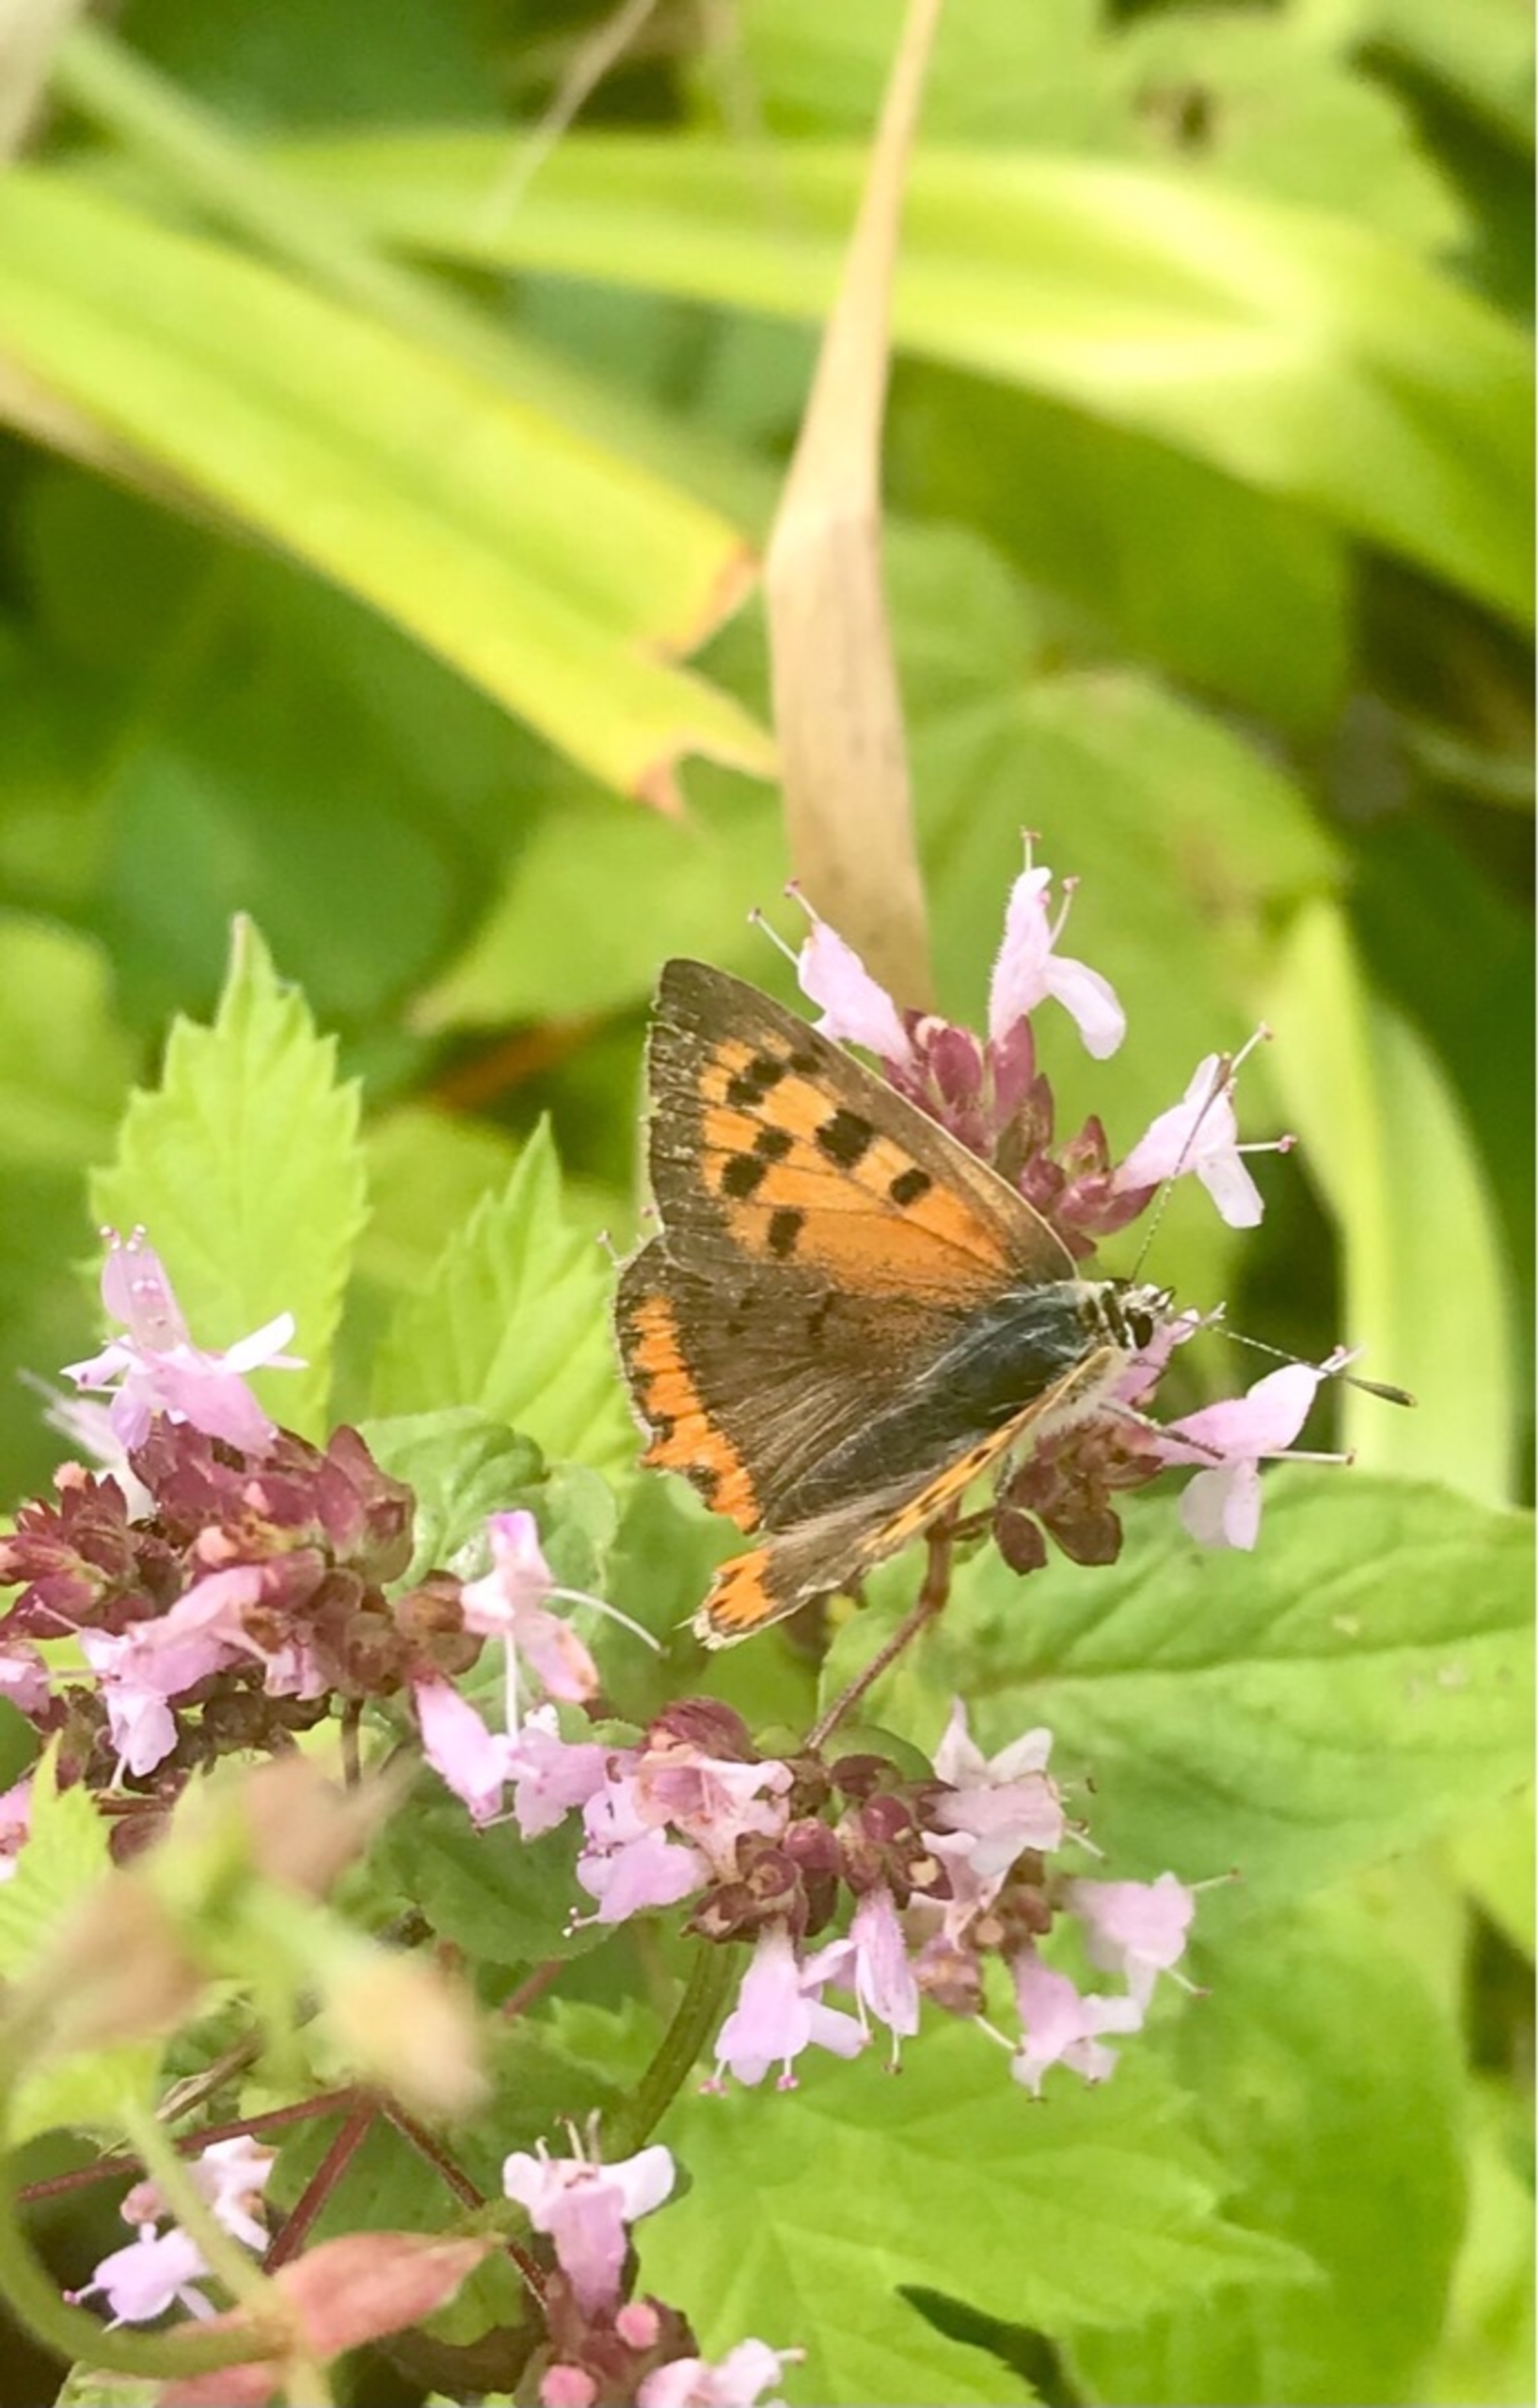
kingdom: Animalia
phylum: Arthropoda
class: Insecta
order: Lepidoptera
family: Lycaenidae
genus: Lycaena
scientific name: Lycaena phlaeas
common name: Lille ildfugl
